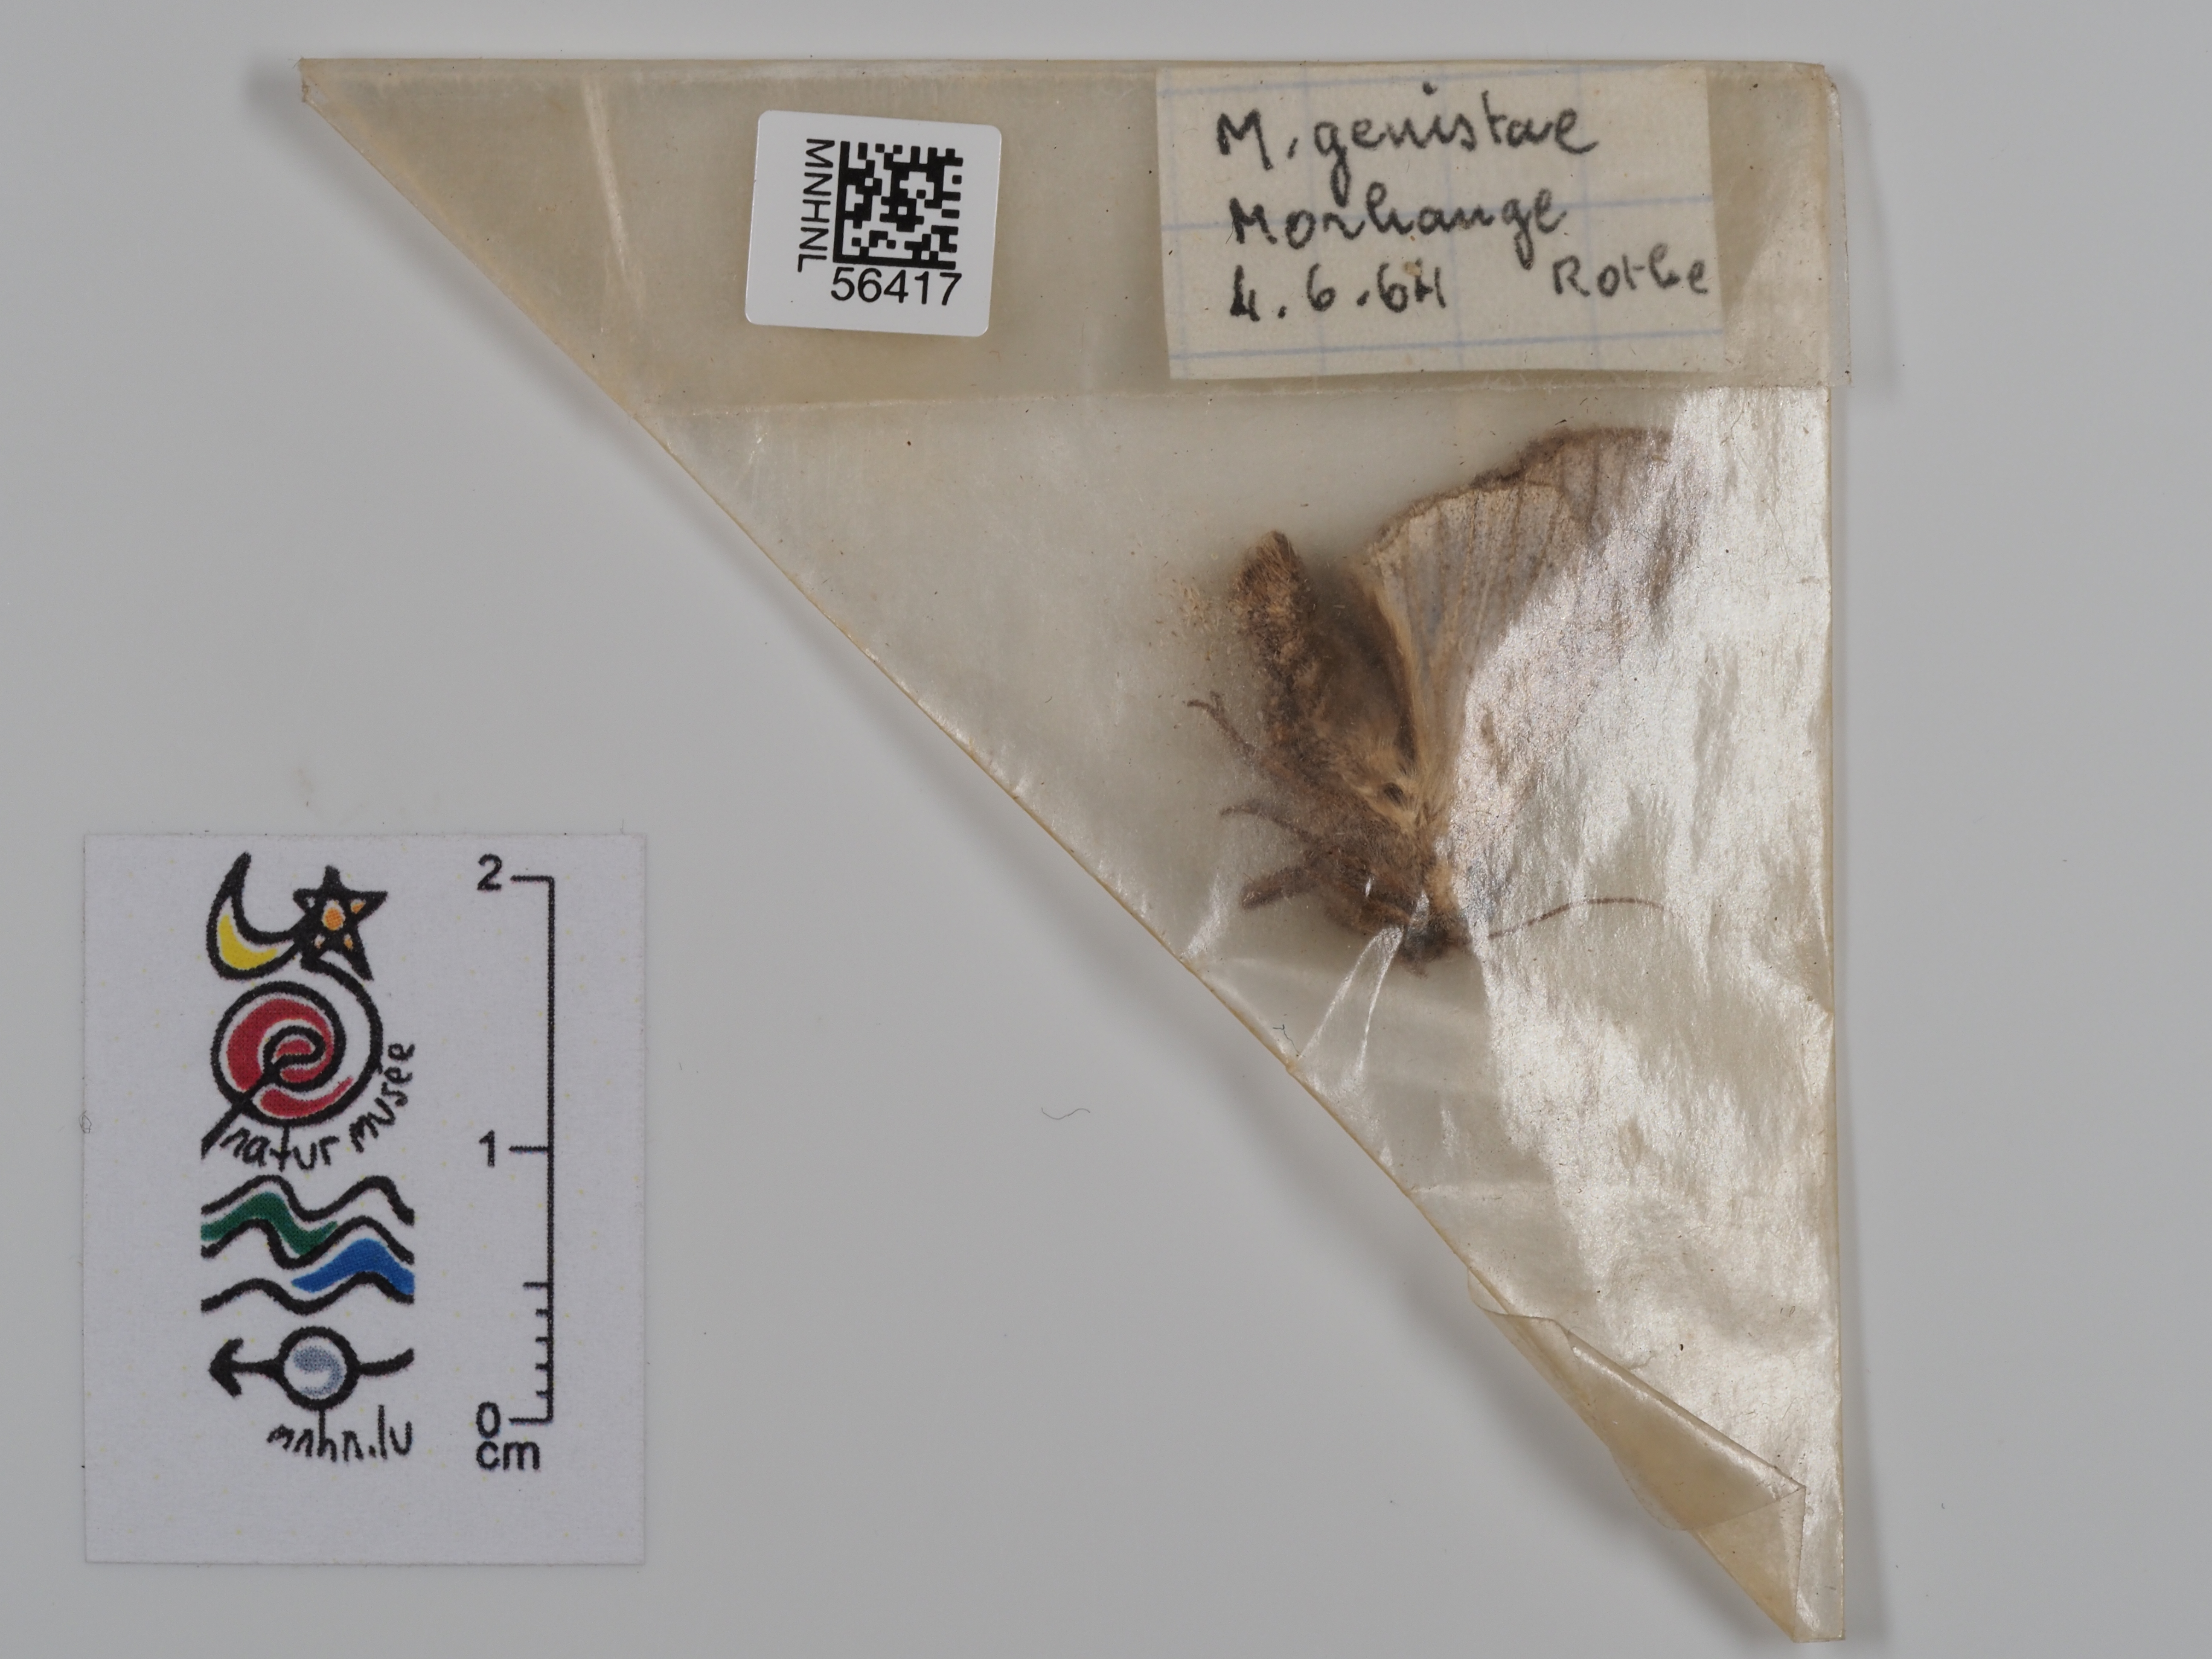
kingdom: Animalia
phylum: Arthropoda
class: Insecta
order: Lepidoptera
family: Noctuidae
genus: Lacanobia
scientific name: Lacanobia w-latinum
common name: Light brocade
